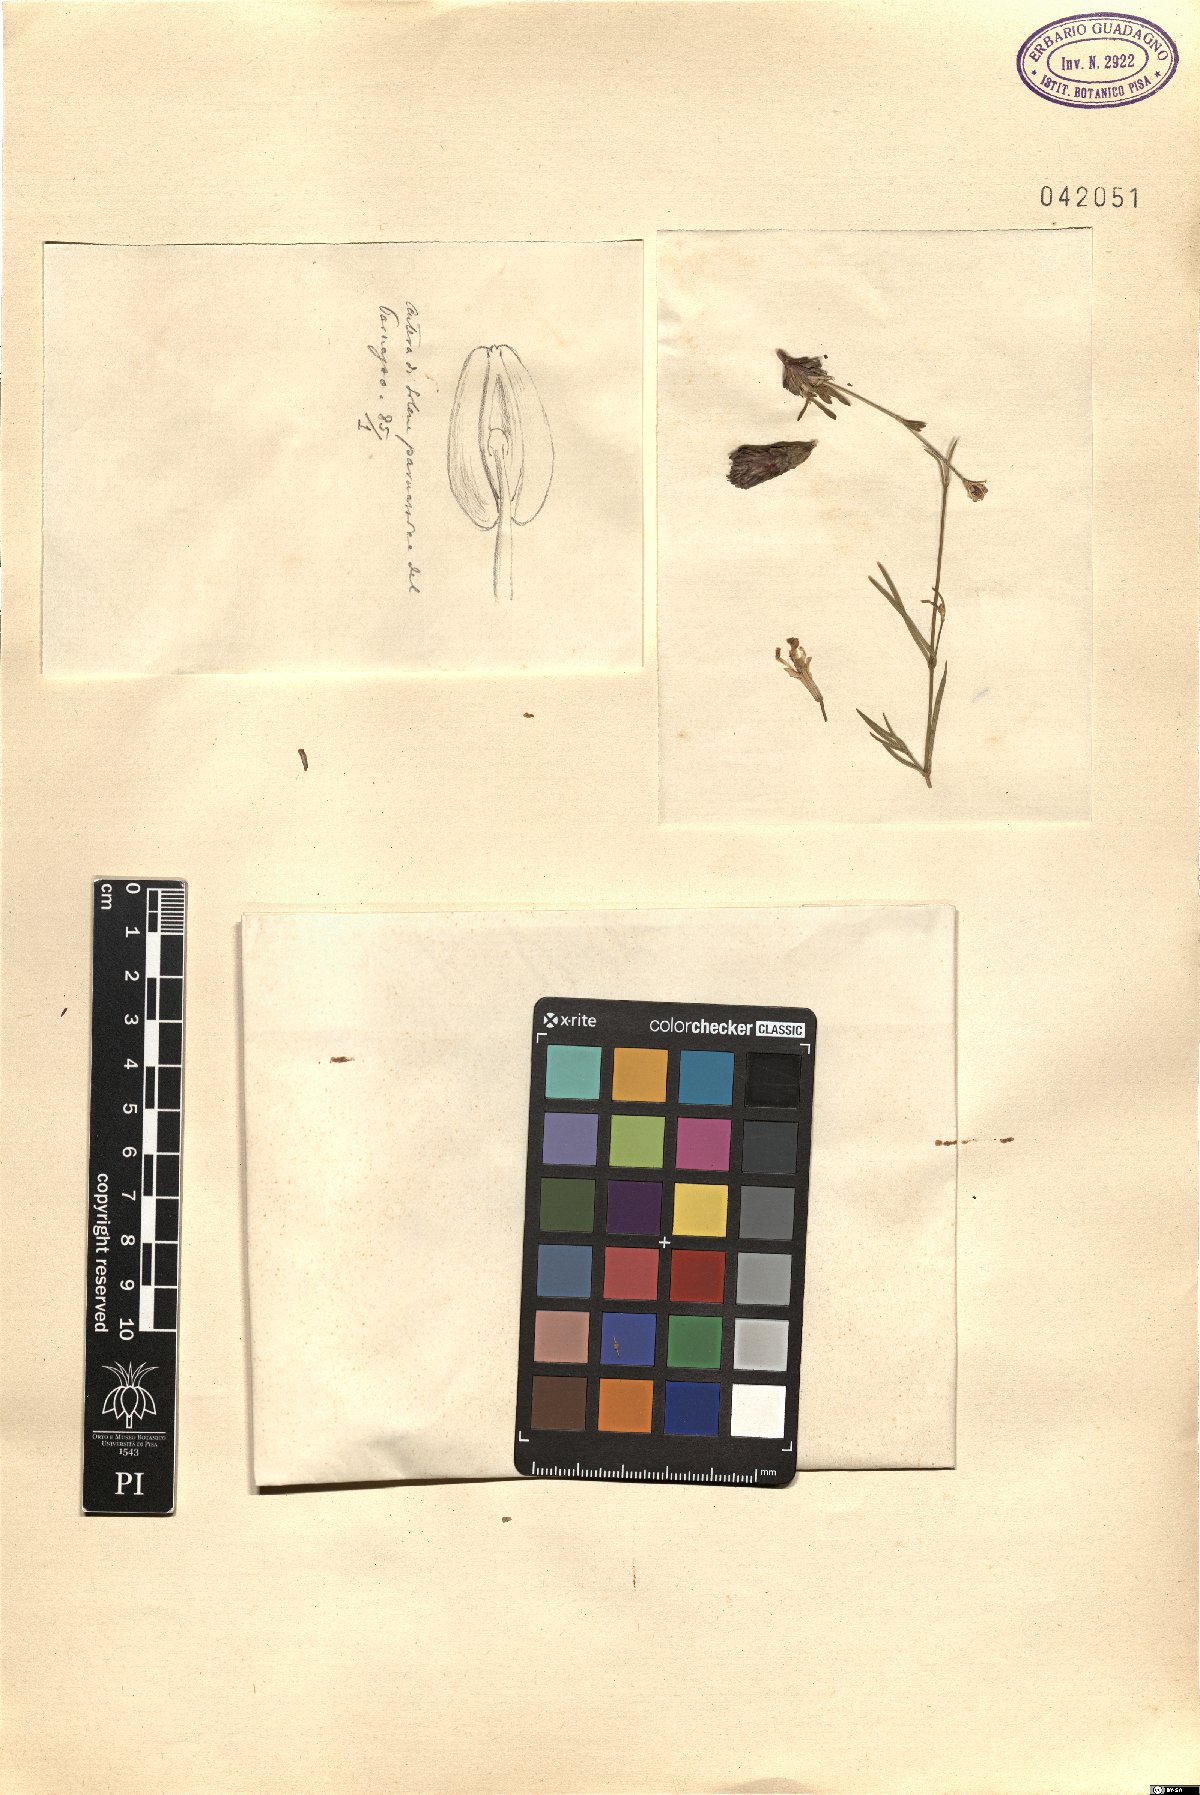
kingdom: Plantae
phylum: Tracheophyta
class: Magnoliopsida
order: Caryophyllales
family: Caryophyllaceae
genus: Silene
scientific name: Silene parnassica
